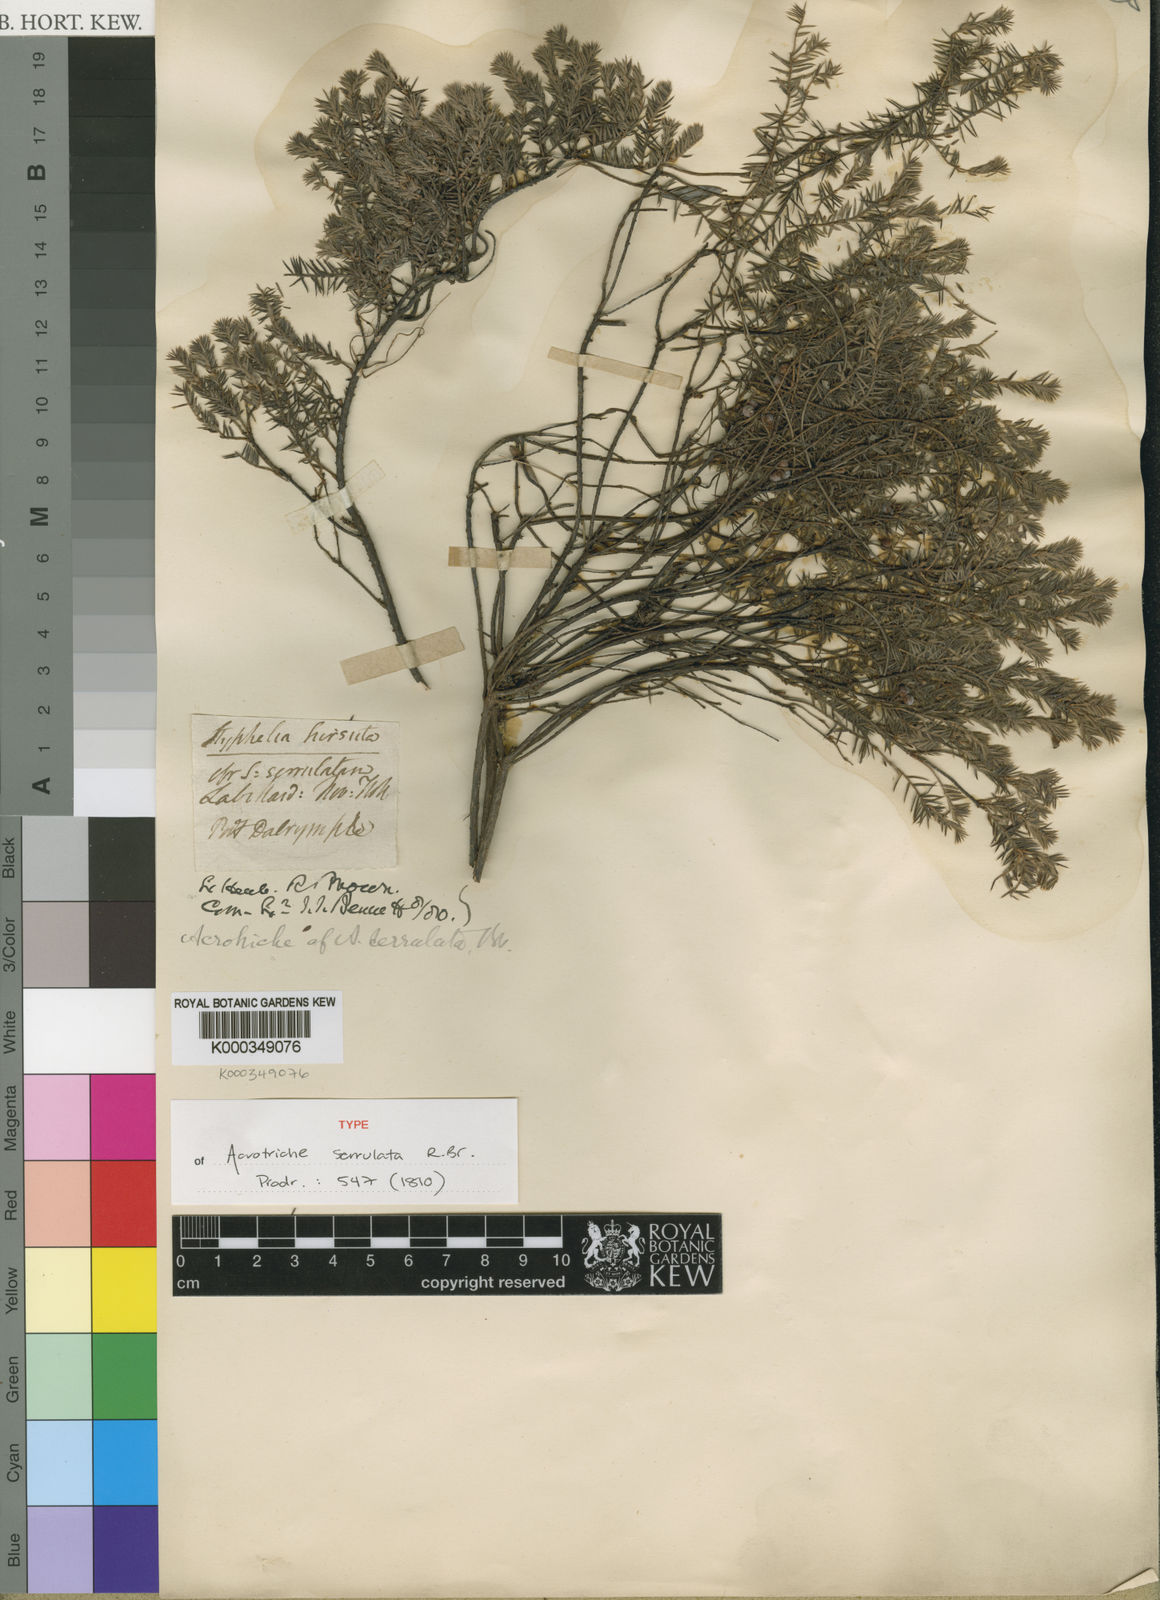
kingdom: Plantae
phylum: Tracheophyta
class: Magnoliopsida
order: Ericales
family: Ericaceae
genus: Acrotriche
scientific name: Acrotriche serrulata
